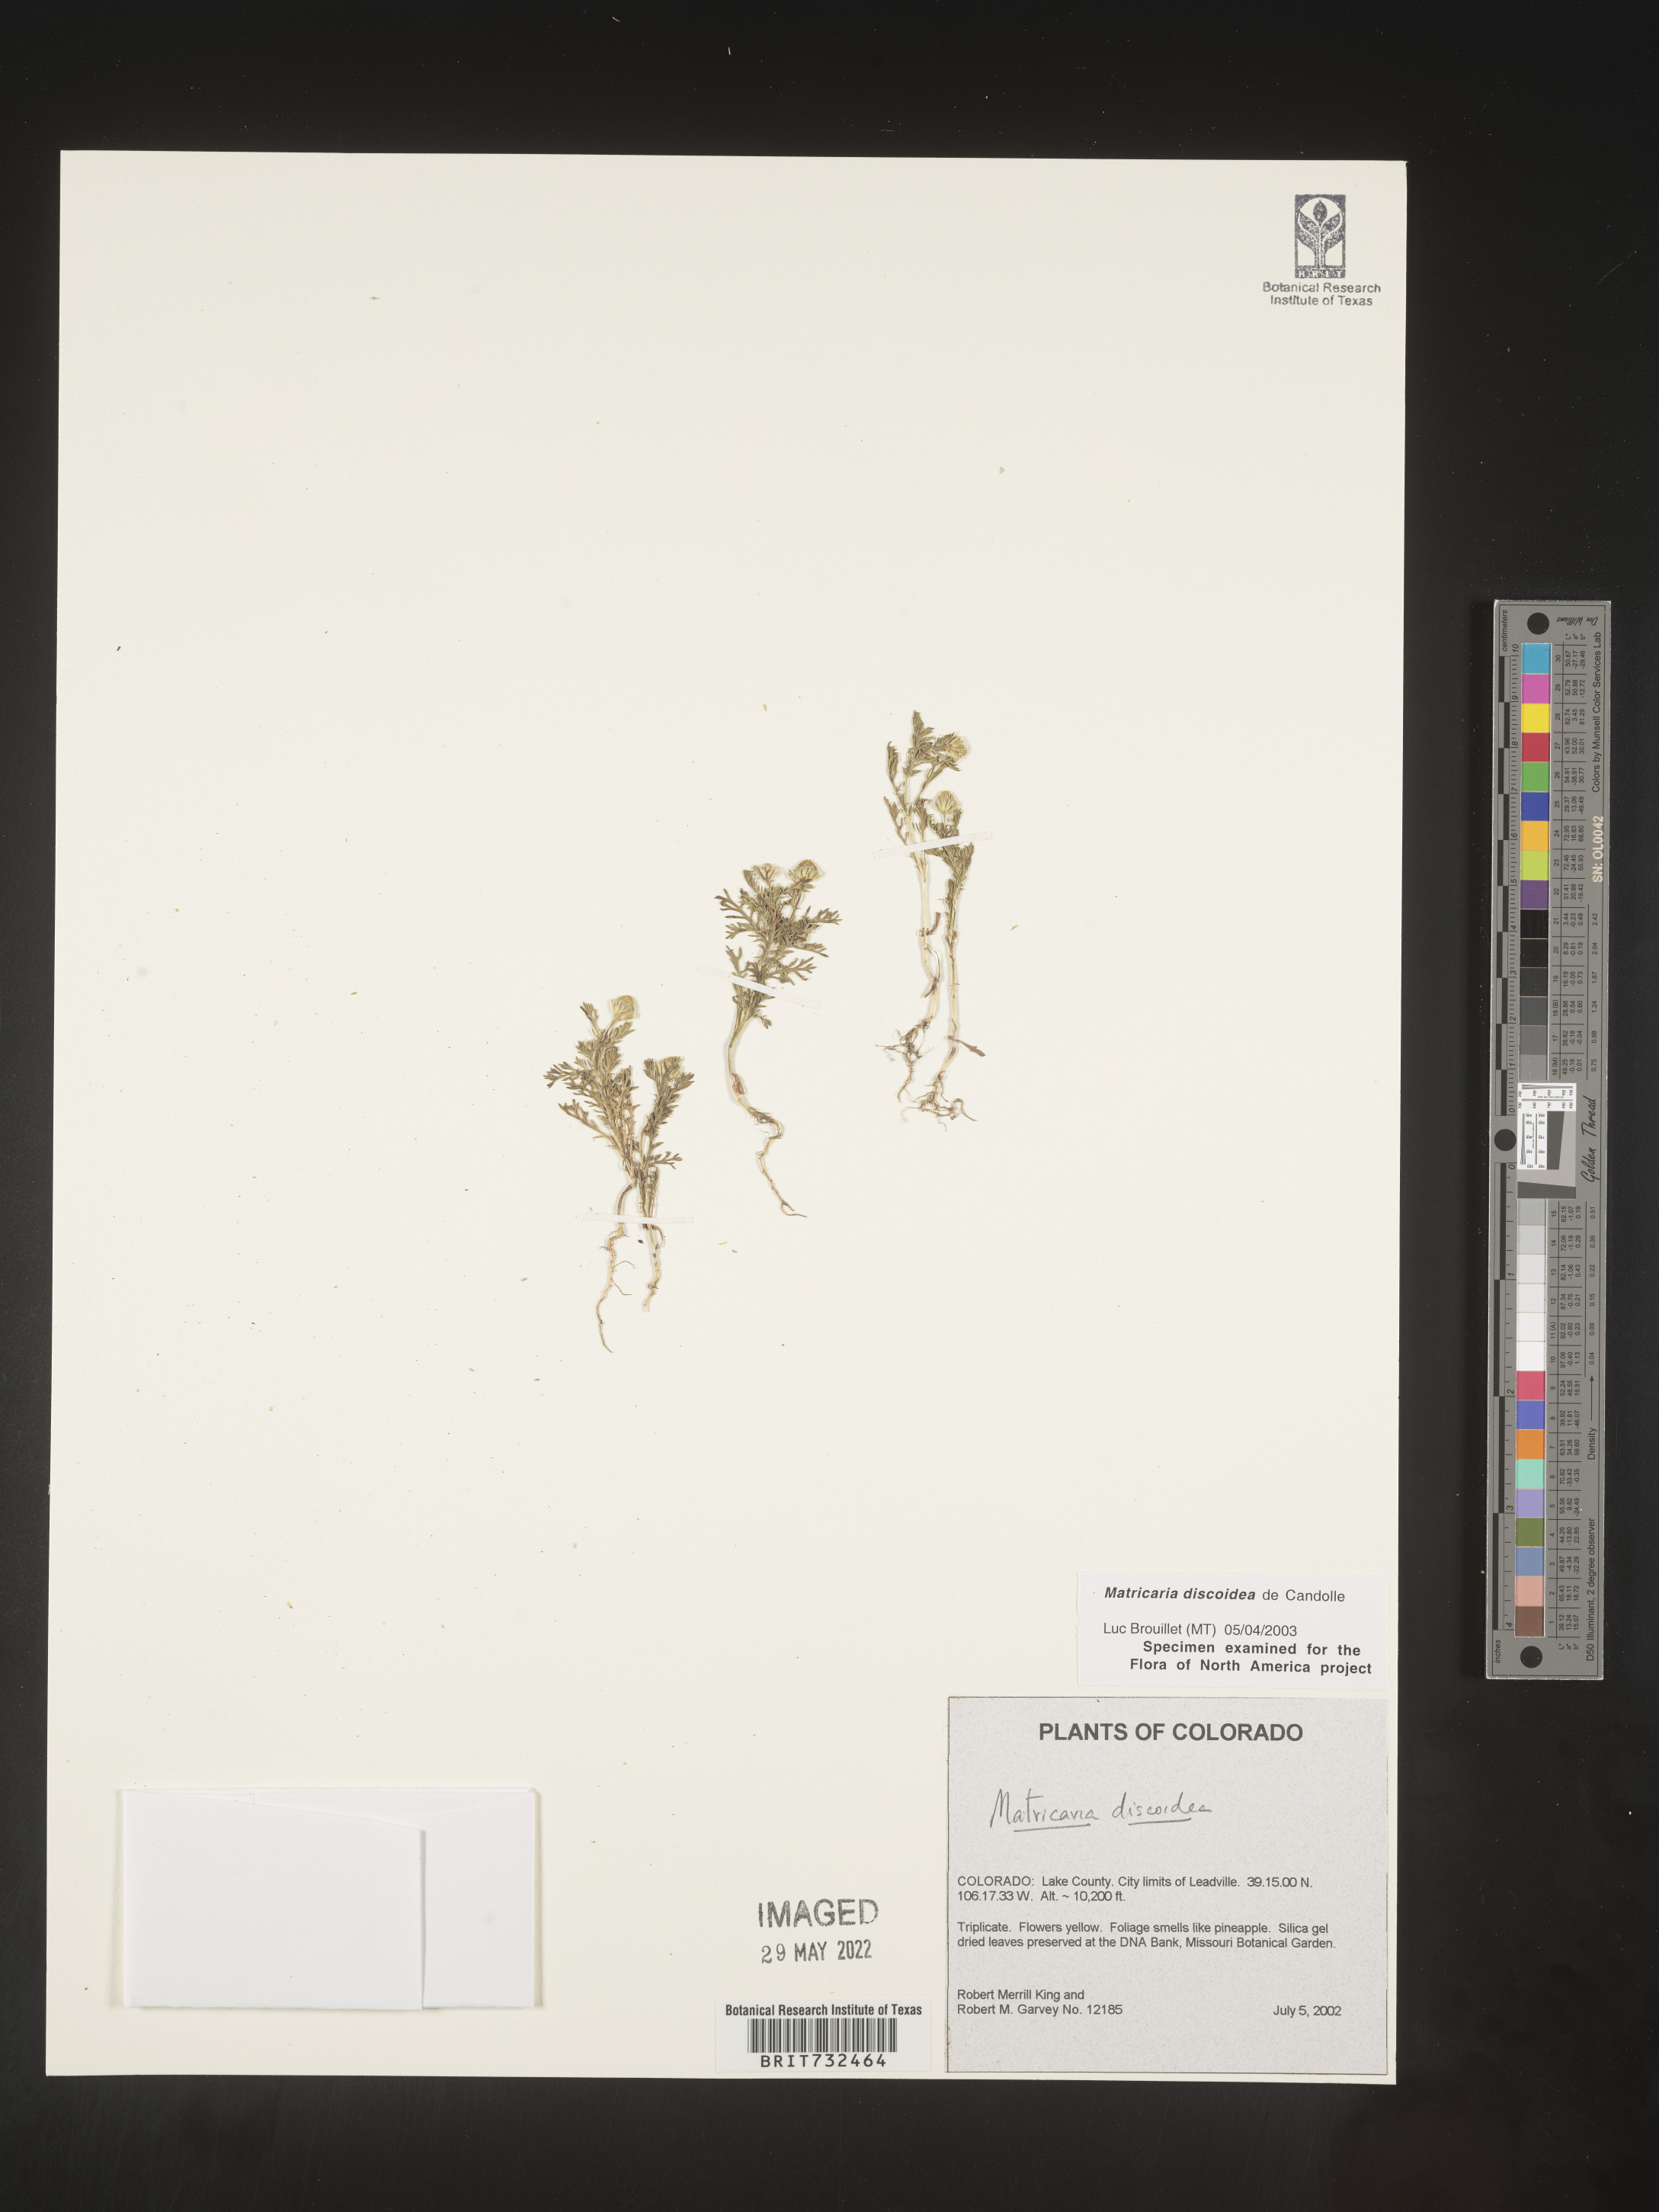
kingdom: Plantae
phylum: Tracheophyta
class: Magnoliopsida
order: Asterales
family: Asteraceae
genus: Matricaria
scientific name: Matricaria discoidea
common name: Disc mayweed
